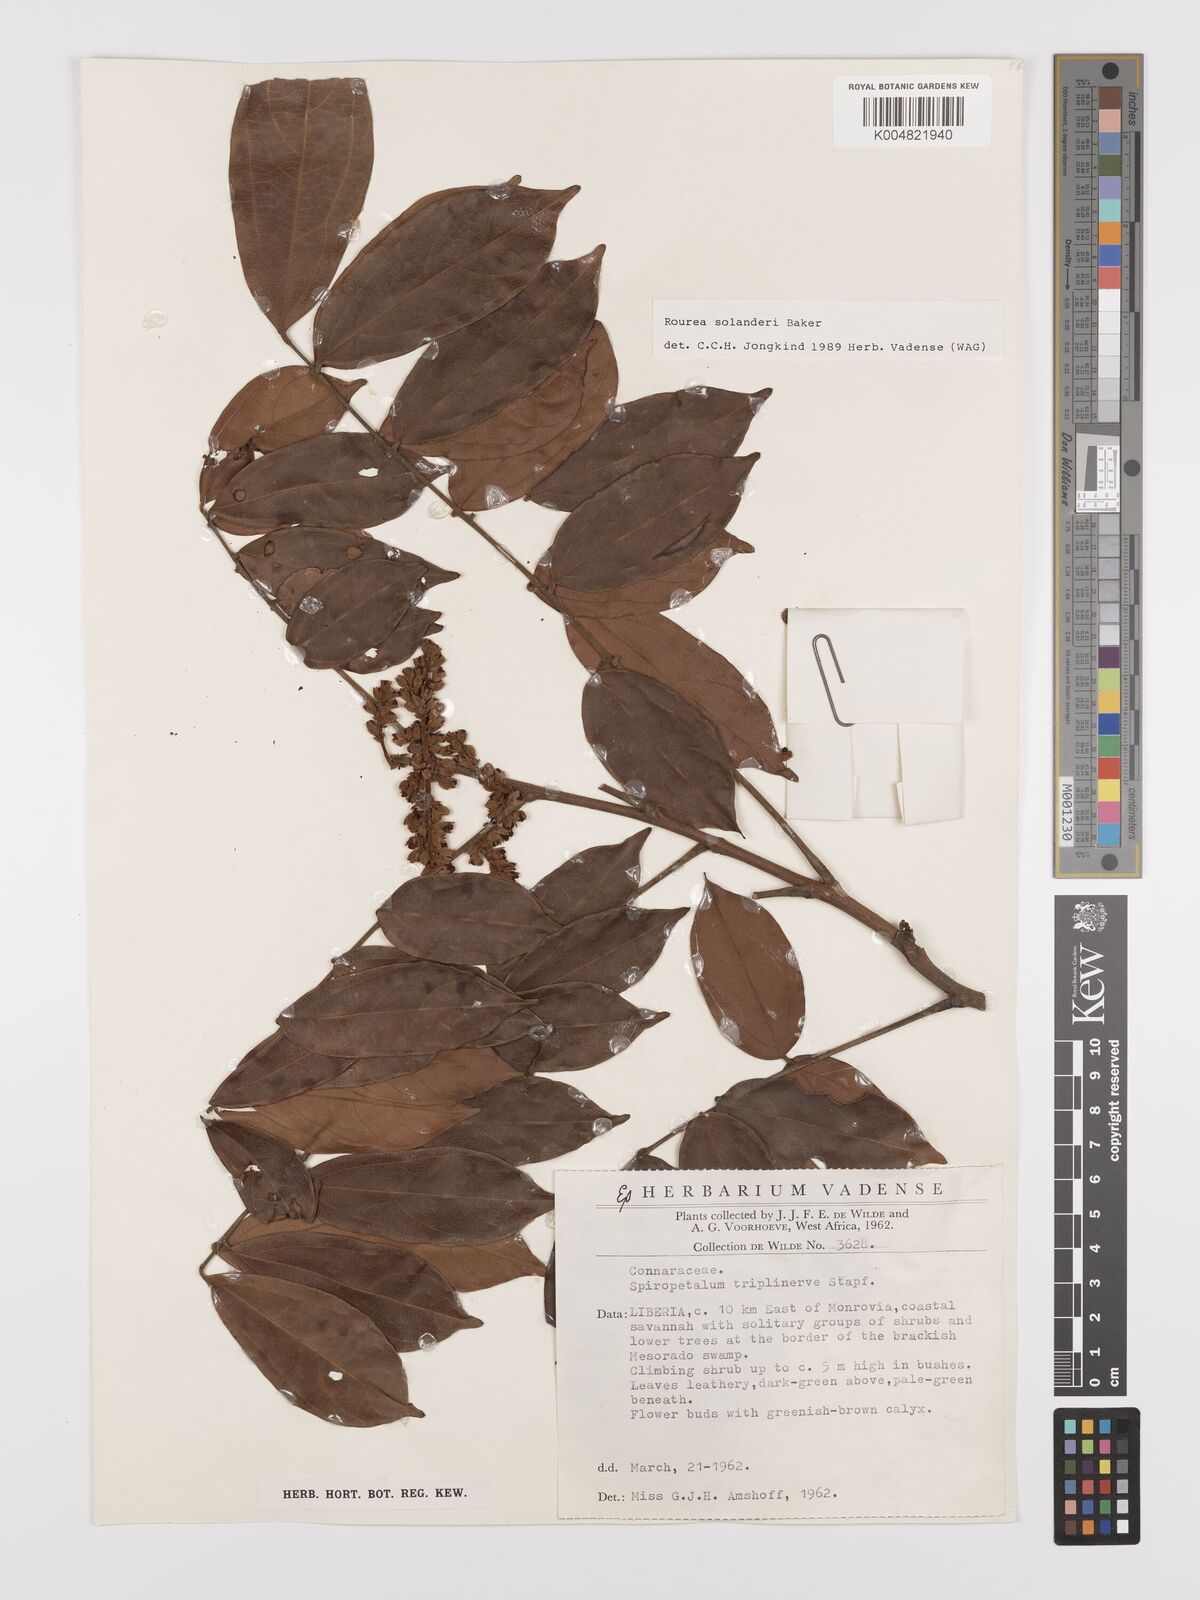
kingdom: Plantae
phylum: Tracheophyta
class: Magnoliopsida
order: Oxalidales
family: Connaraceae
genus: Rourea
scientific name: Rourea solanderi
